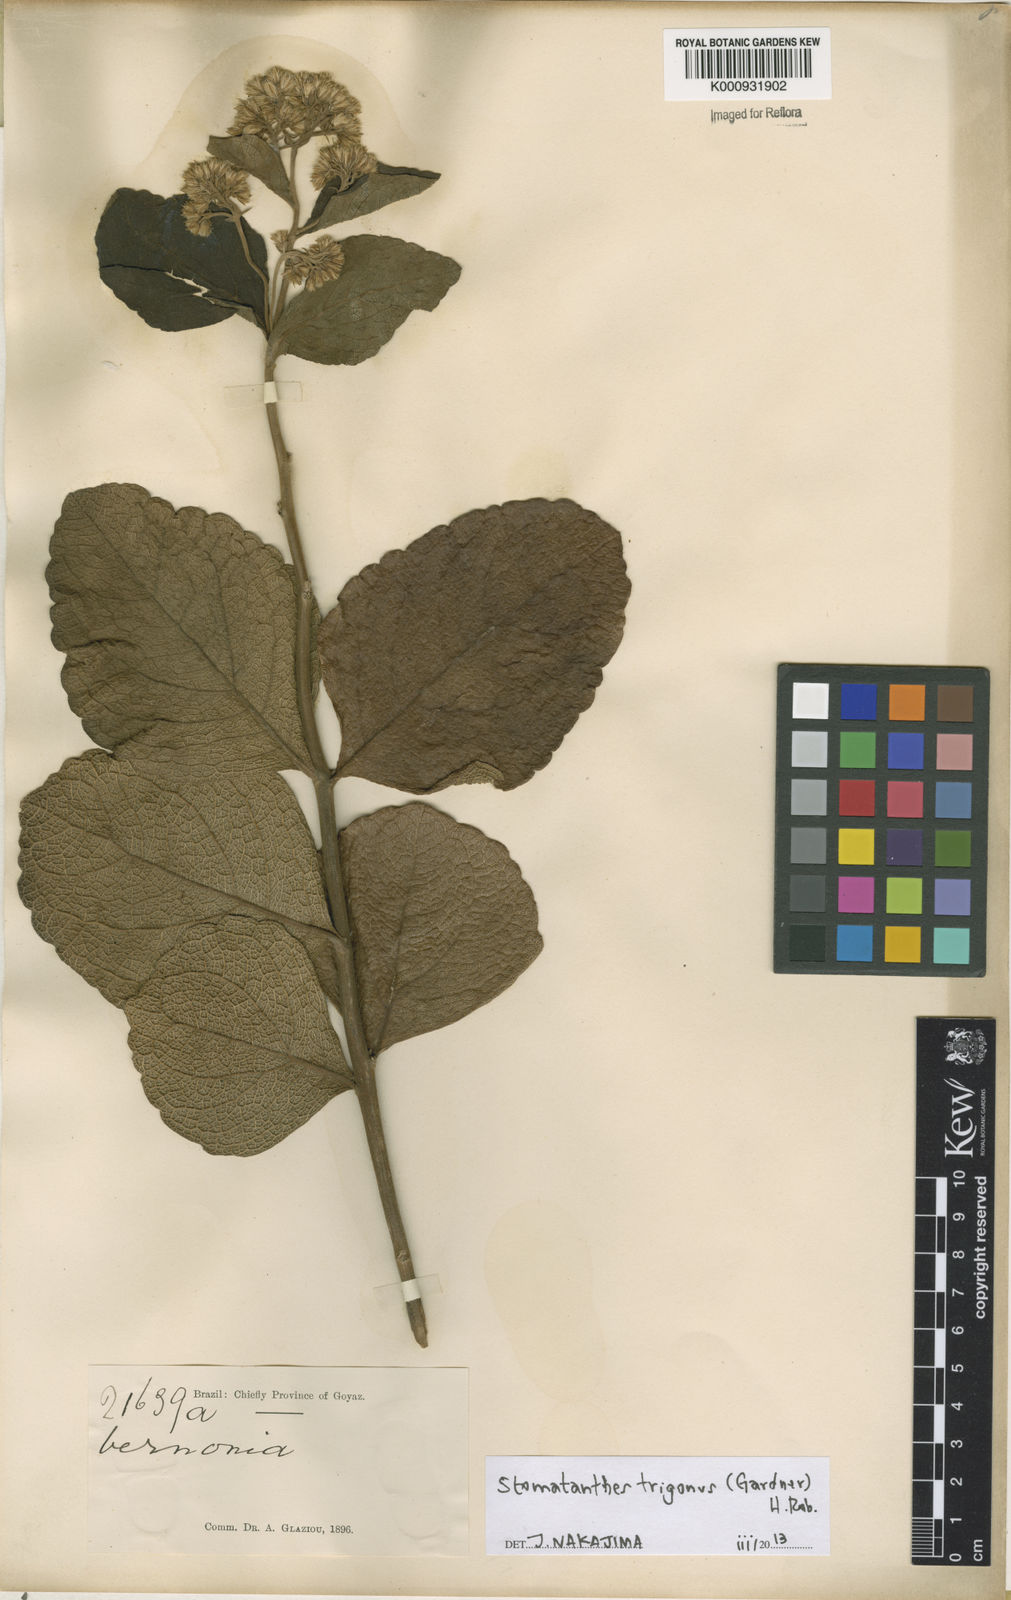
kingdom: Plantae
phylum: Tracheophyta
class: Magnoliopsida
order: Asterales
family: Asteraceae
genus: Stomatanthes
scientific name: Stomatanthes trigonus
